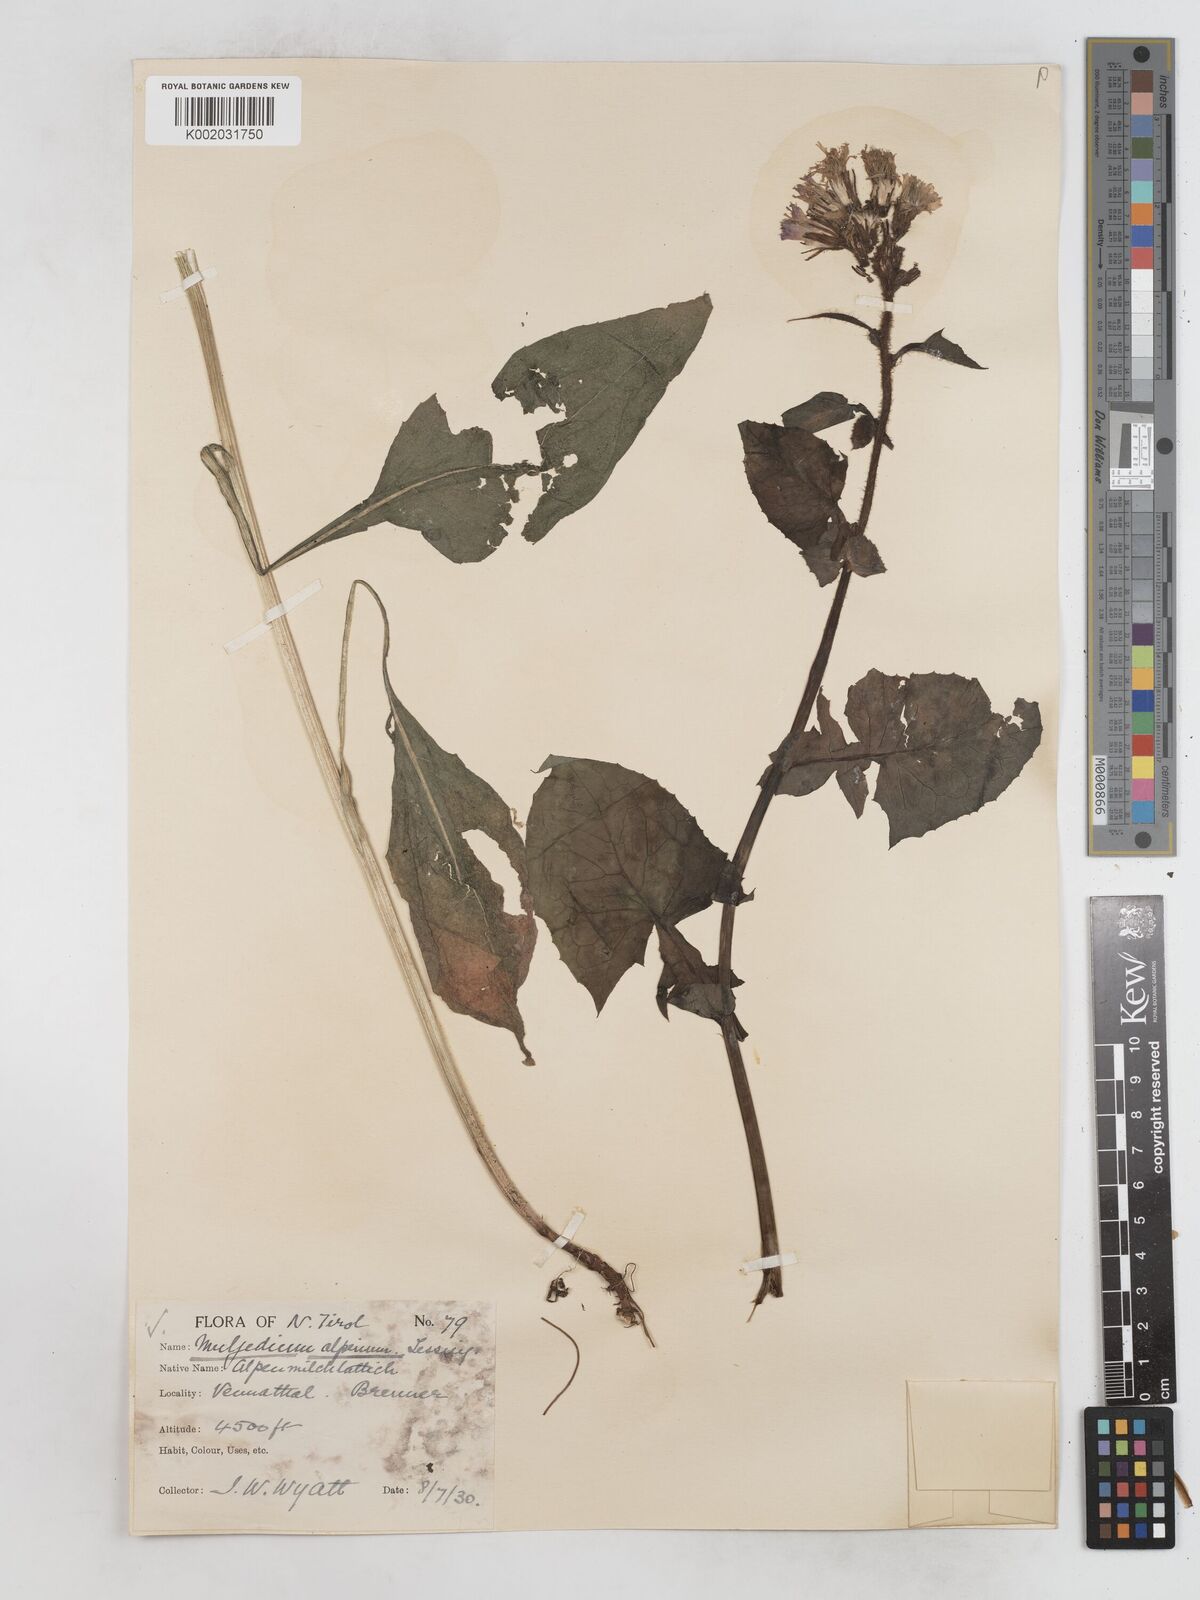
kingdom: Plantae
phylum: Tracheophyta
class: Magnoliopsida
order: Asterales
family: Asteraceae
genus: Cicerbita
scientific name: Cicerbita alpina
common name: Alpine blue-sow-thistle
